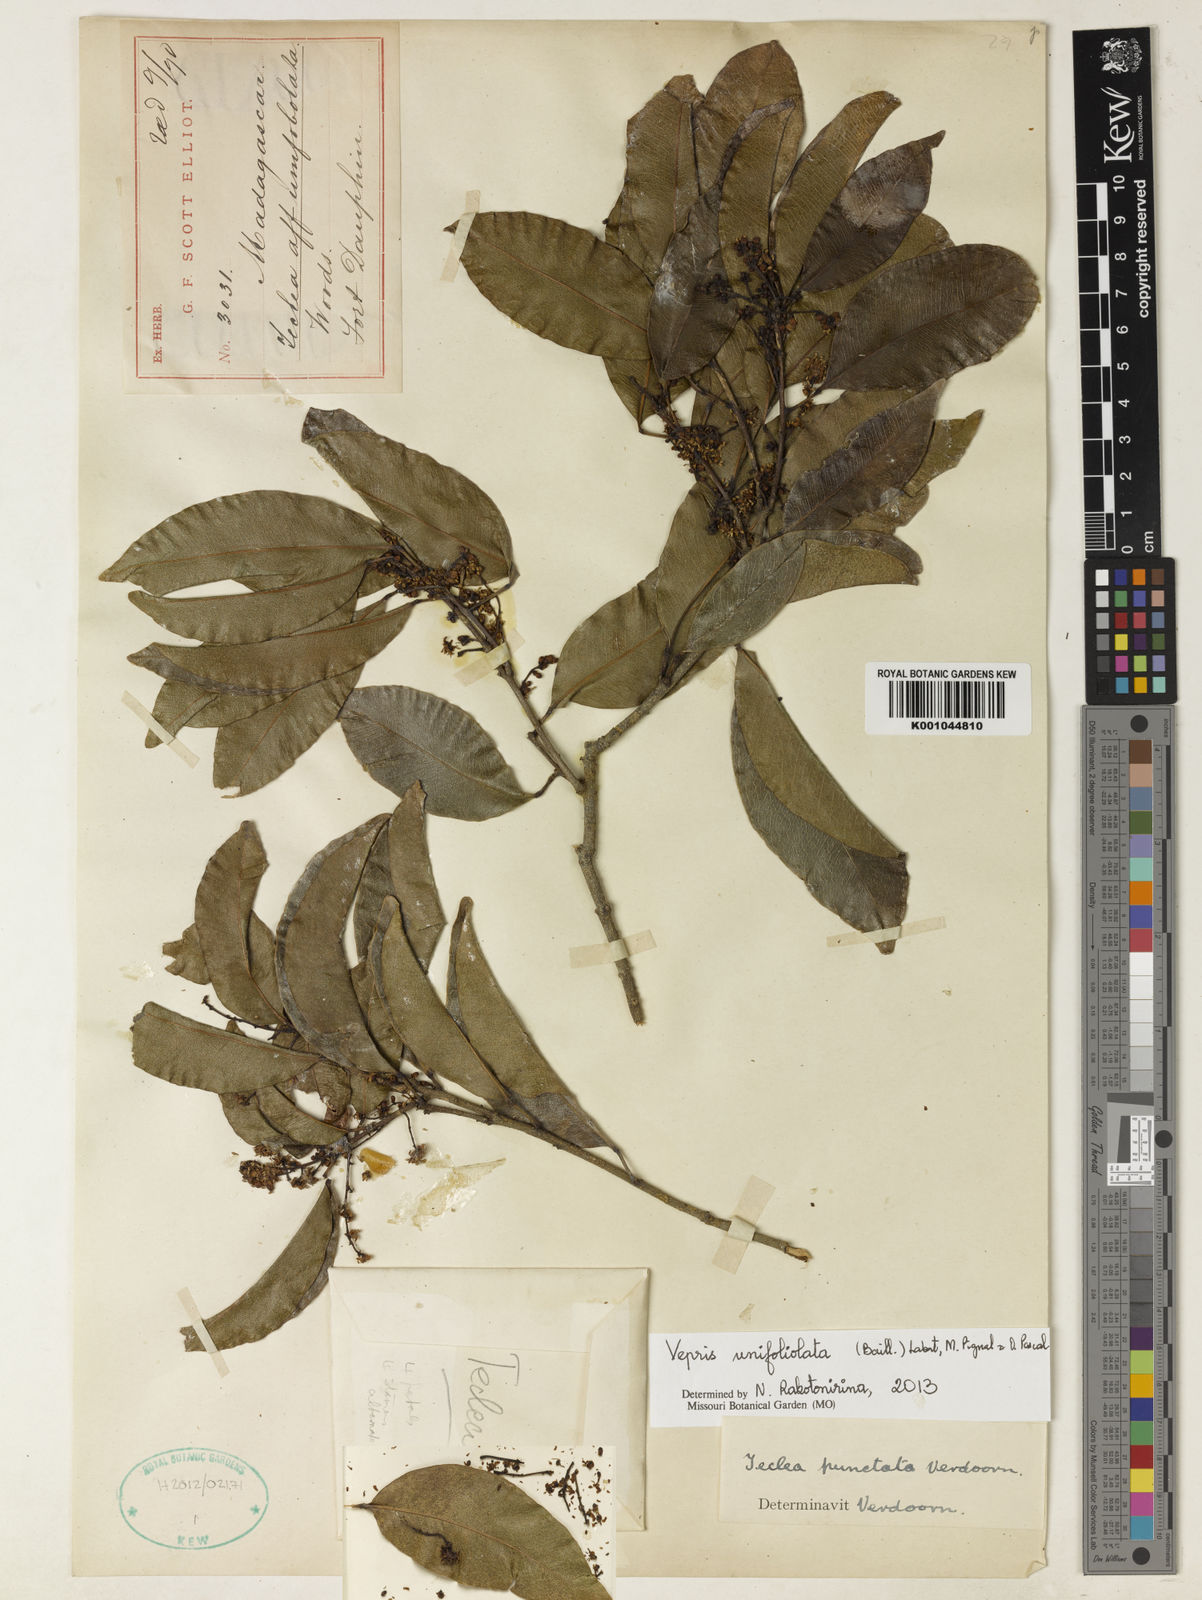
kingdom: Plantae
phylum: Tracheophyta
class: Magnoliopsida
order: Sapindales
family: Rutaceae
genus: Vepris
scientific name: Vepris unifoliolata
